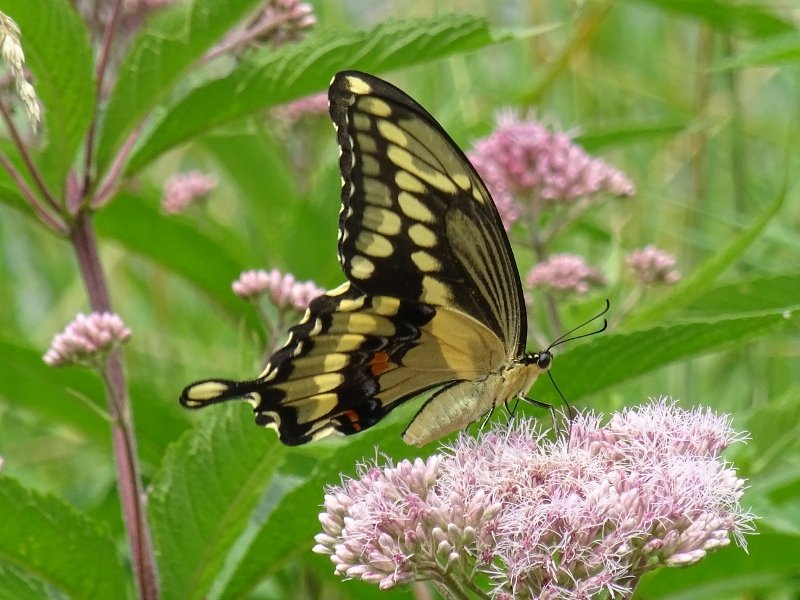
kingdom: Animalia
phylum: Arthropoda
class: Insecta
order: Lepidoptera
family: Papilionidae
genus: Papilio
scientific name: Papilio cresphontes
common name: Eastern Giant Swallowtail
